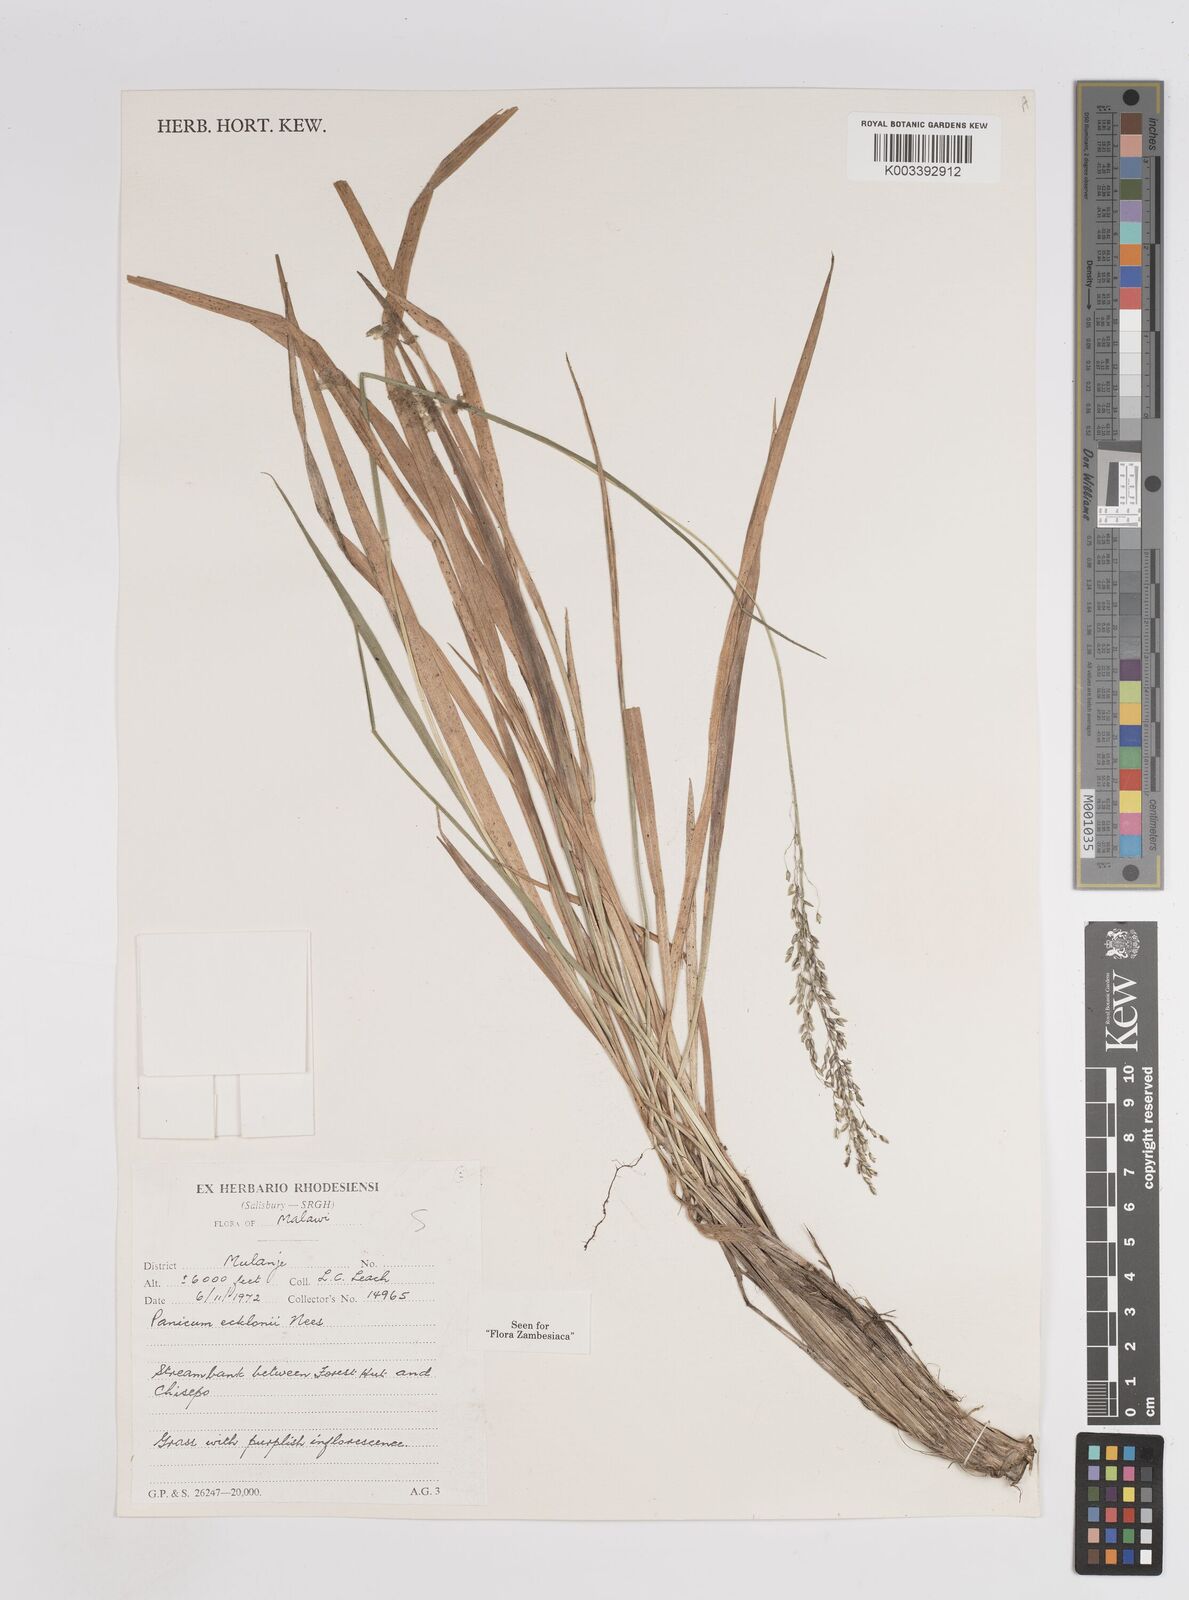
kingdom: Plantae
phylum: Tracheophyta
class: Liliopsida
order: Poales
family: Poaceae
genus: Adenochloa
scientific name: Adenochloa ecklonii
